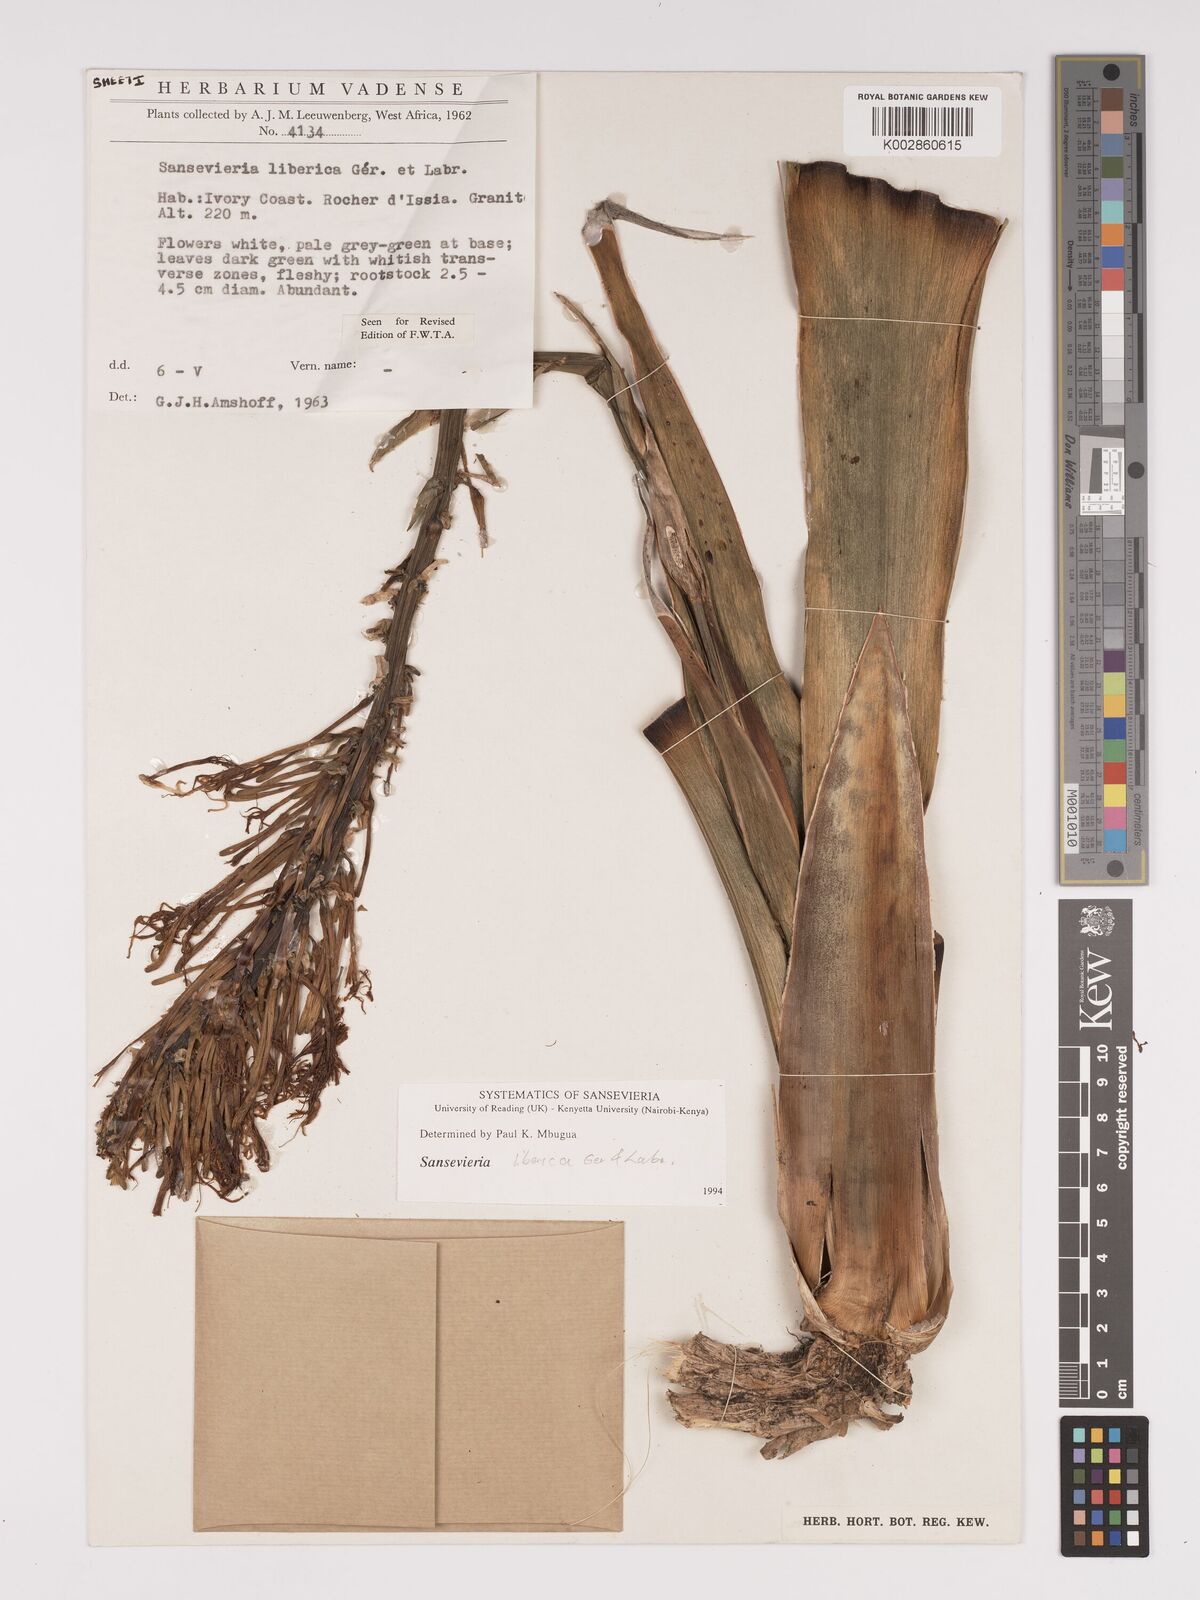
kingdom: Plantae
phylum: Tracheophyta
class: Liliopsida
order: Asparagales
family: Asparagaceae
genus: Dracaena
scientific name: Dracaena liberica
